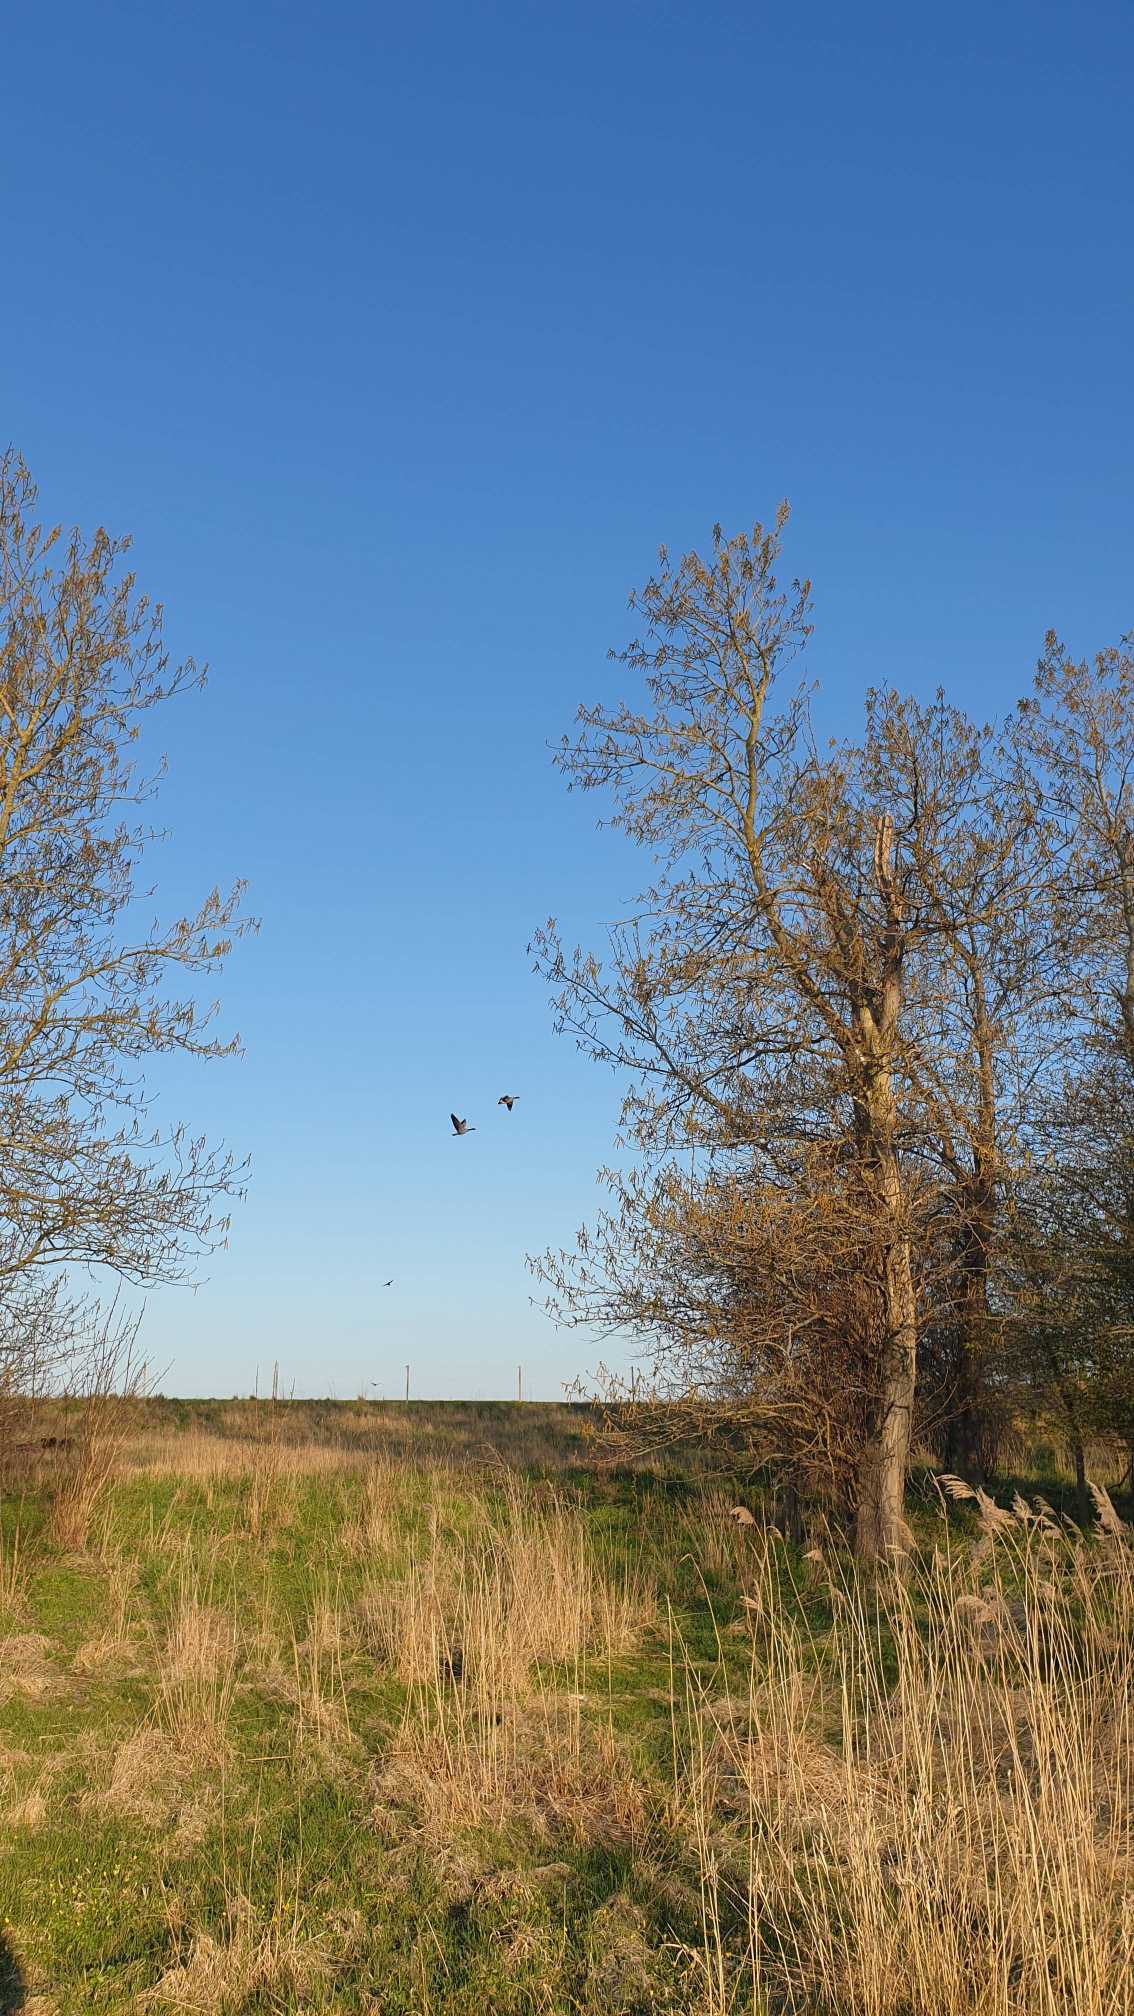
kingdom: Animalia
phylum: Chordata
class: Aves
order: Anseriformes
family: Anatidae
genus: Anser
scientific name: Anser anser
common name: Grågås
